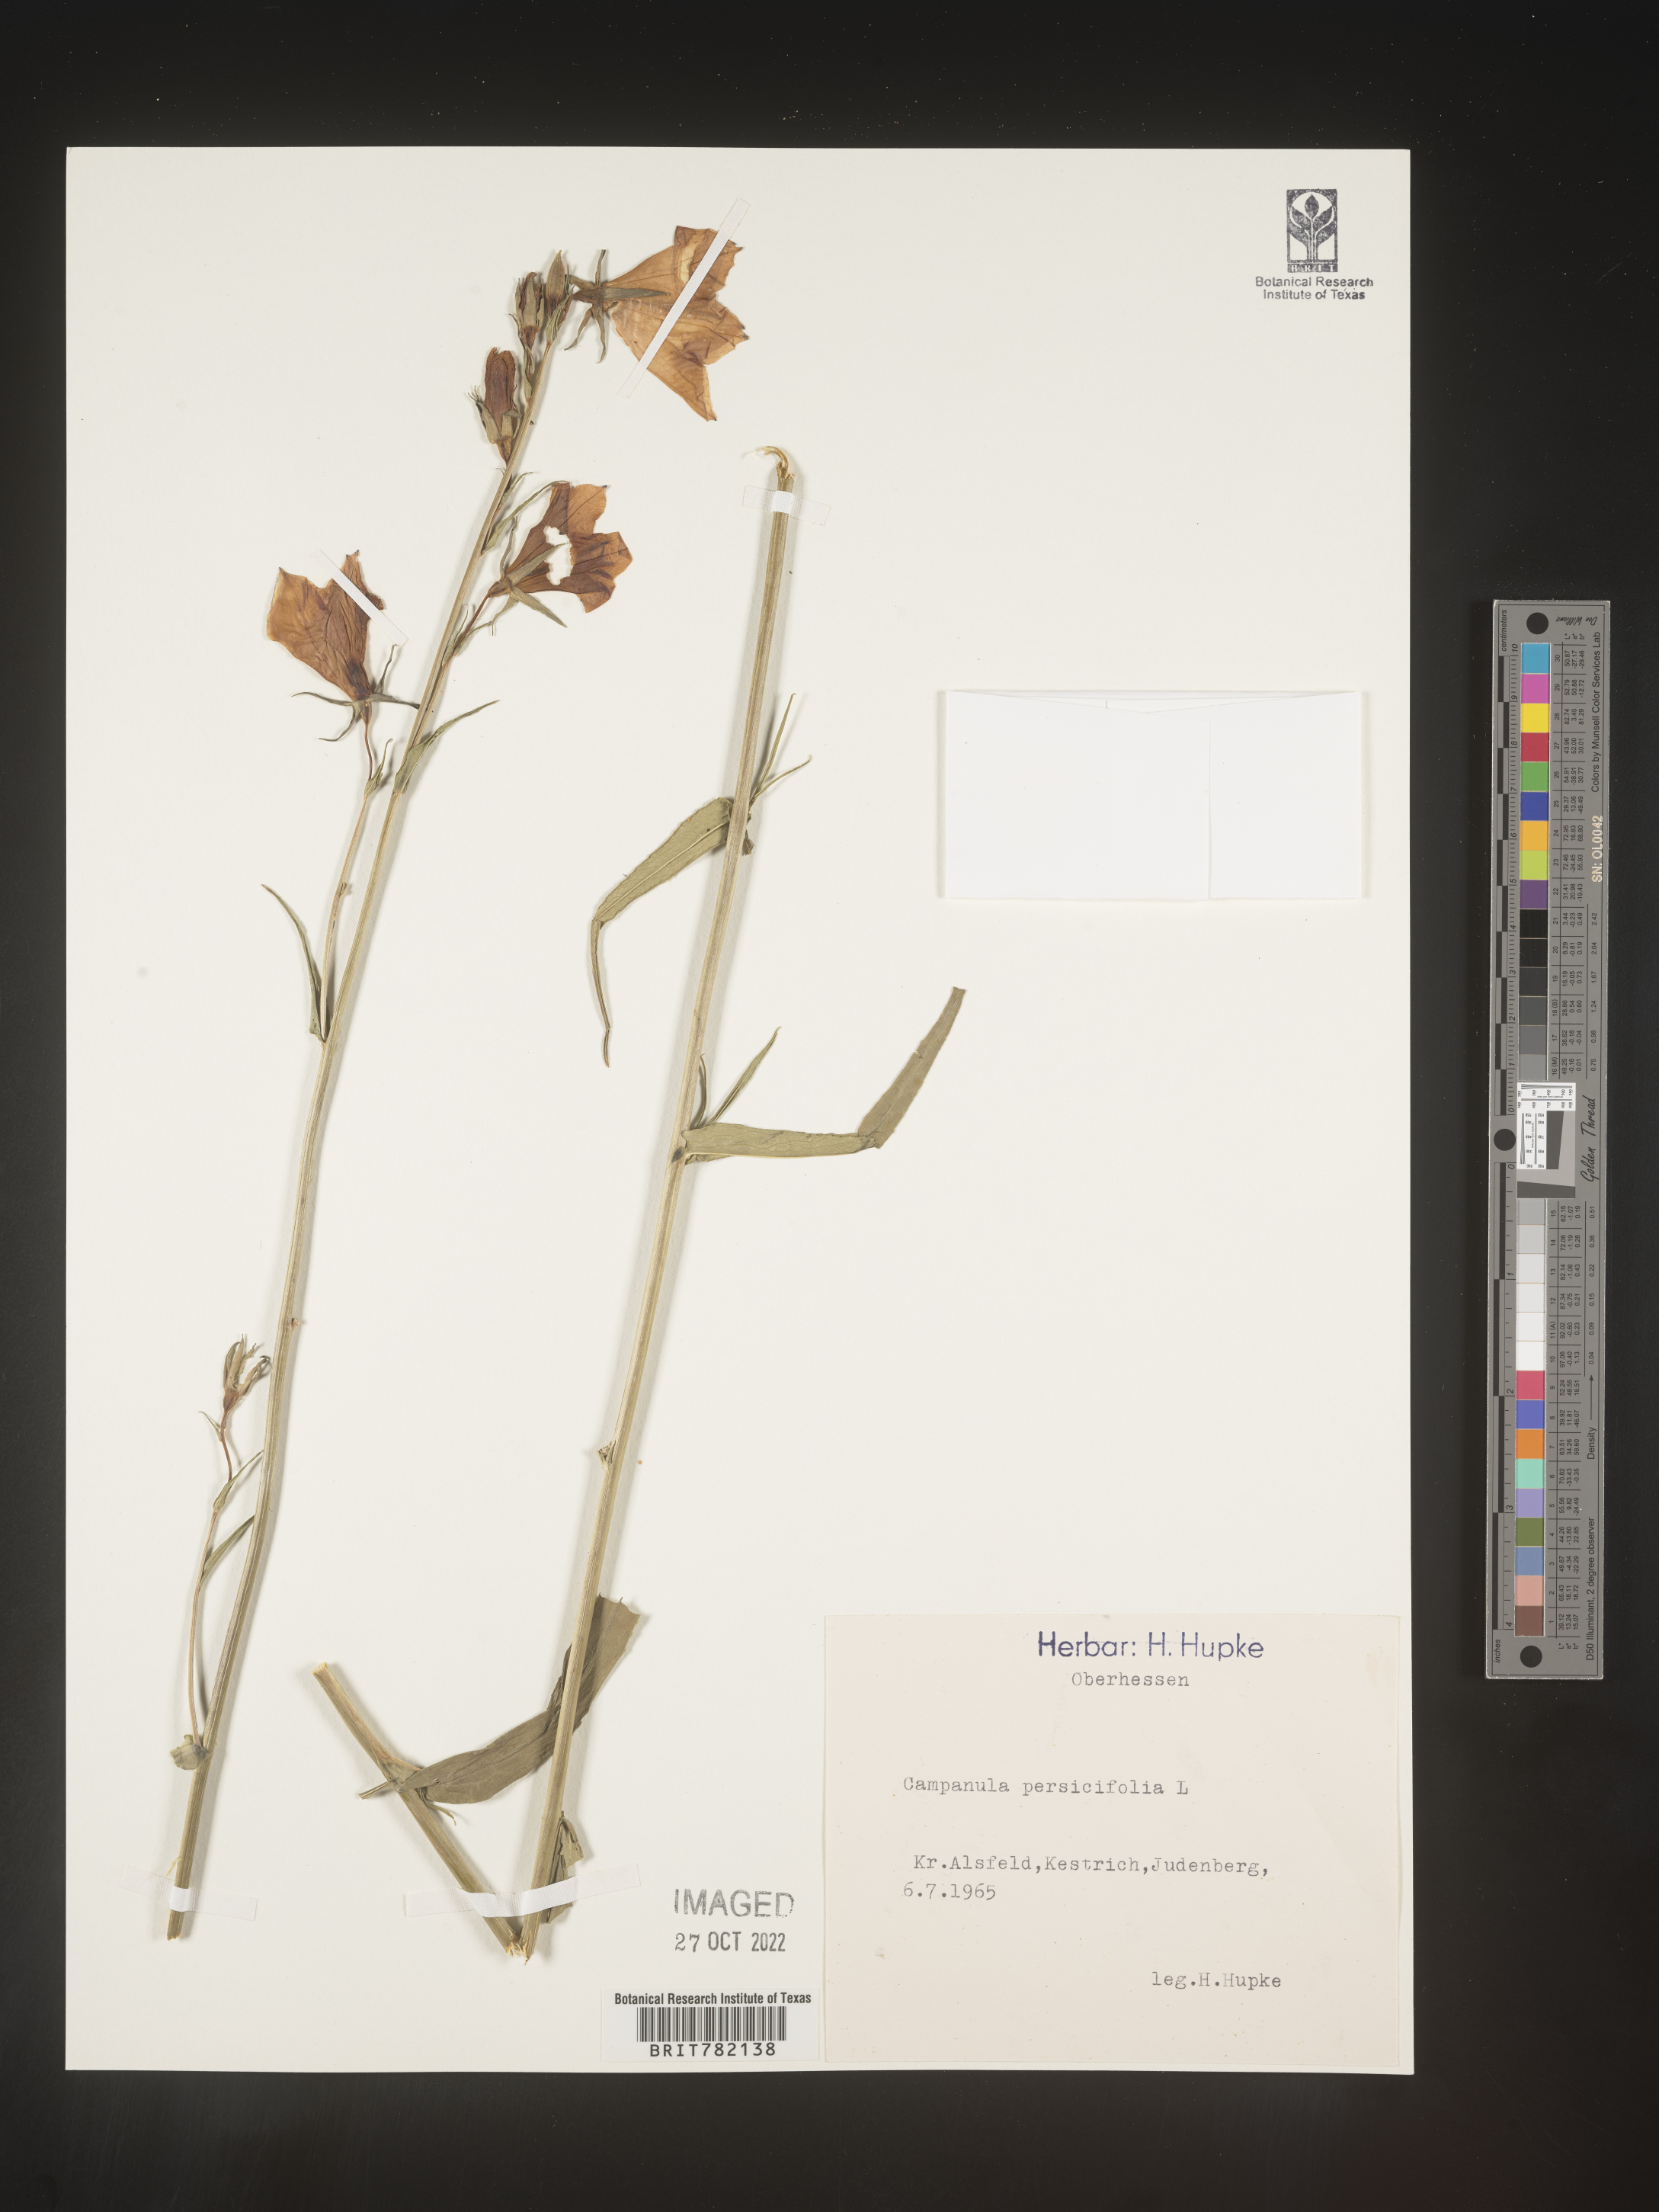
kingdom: Plantae
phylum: Tracheophyta
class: Magnoliopsida
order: Asterales
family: Campanulaceae
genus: Campanula
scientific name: Campanula
